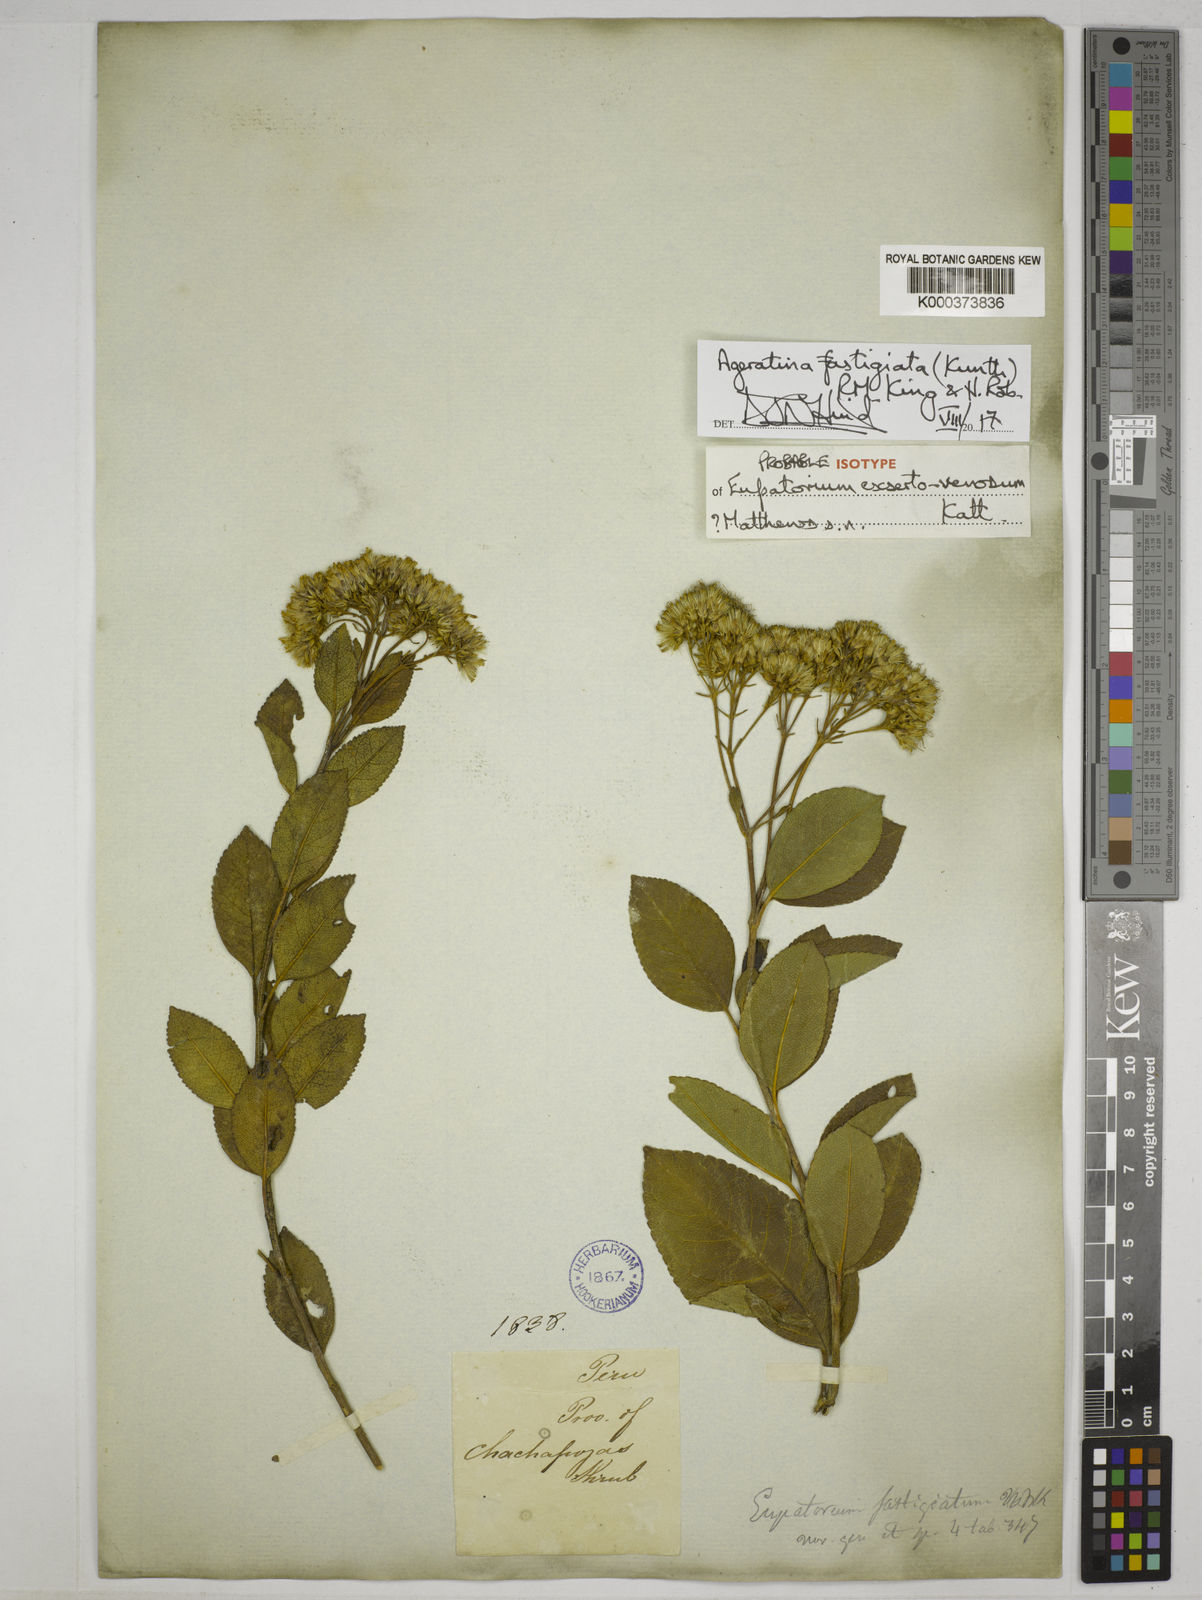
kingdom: Plantae
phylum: Tracheophyta
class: Magnoliopsida
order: Asterales
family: Asteraceae
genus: Ageratina
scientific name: Ageratina fastigiata
